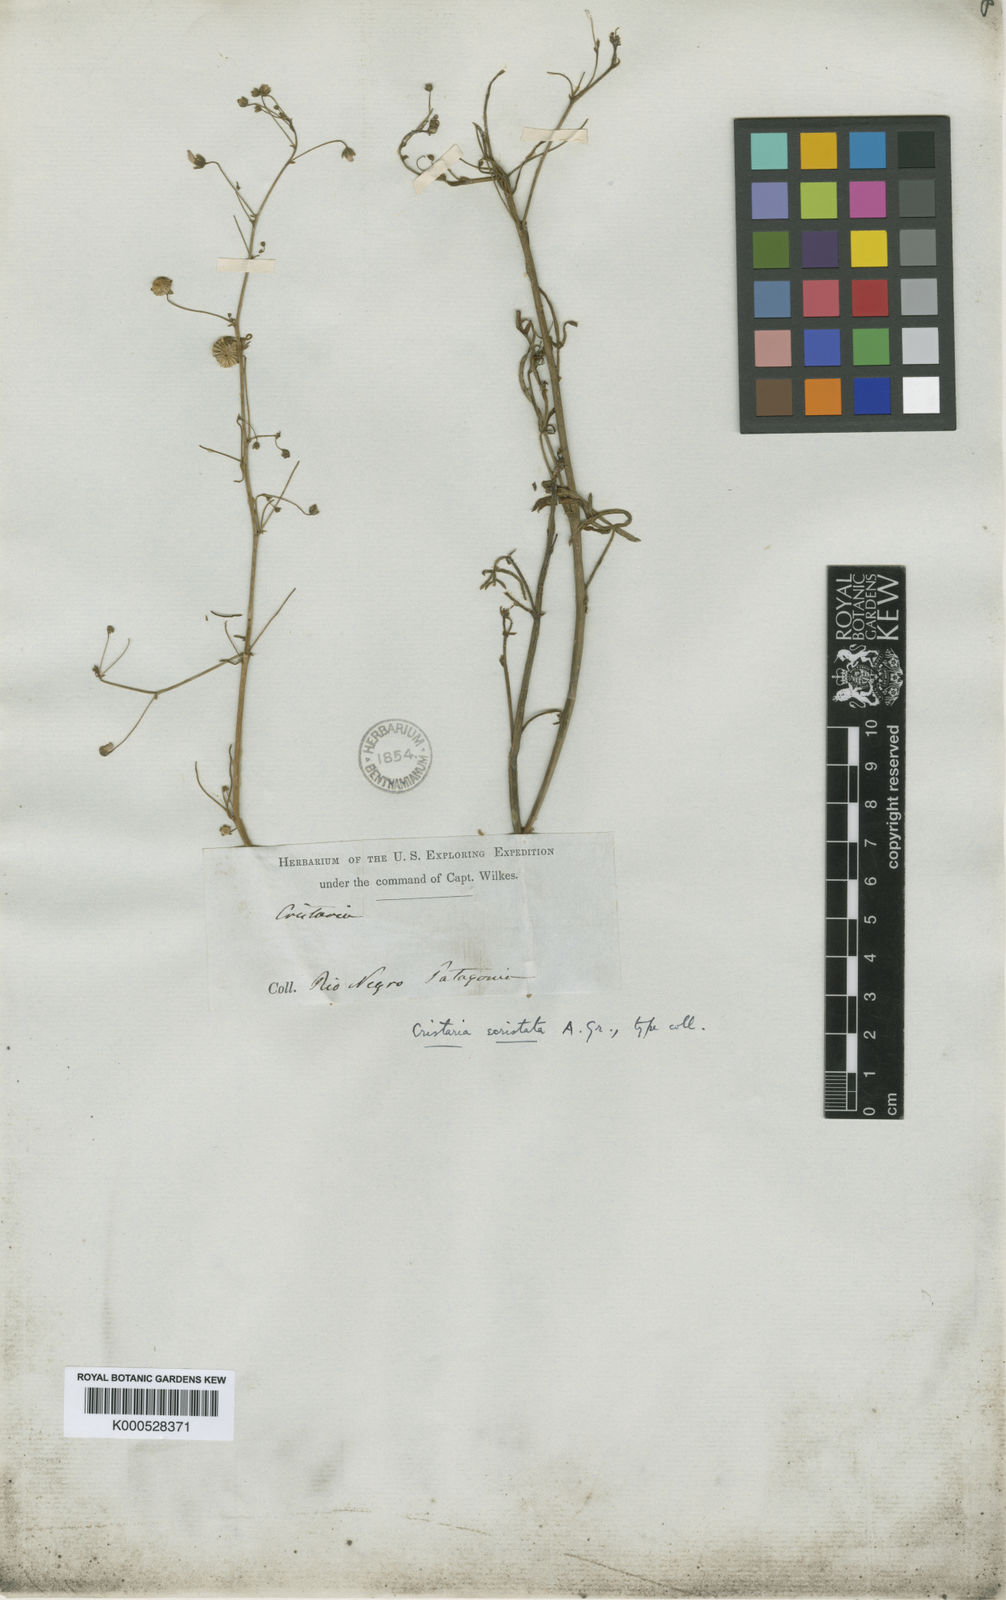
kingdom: Plantae
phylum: Tracheophyta
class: Magnoliopsida
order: Malvales
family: Malvaceae
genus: Lecanophora
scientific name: Lecanophora ecristata
